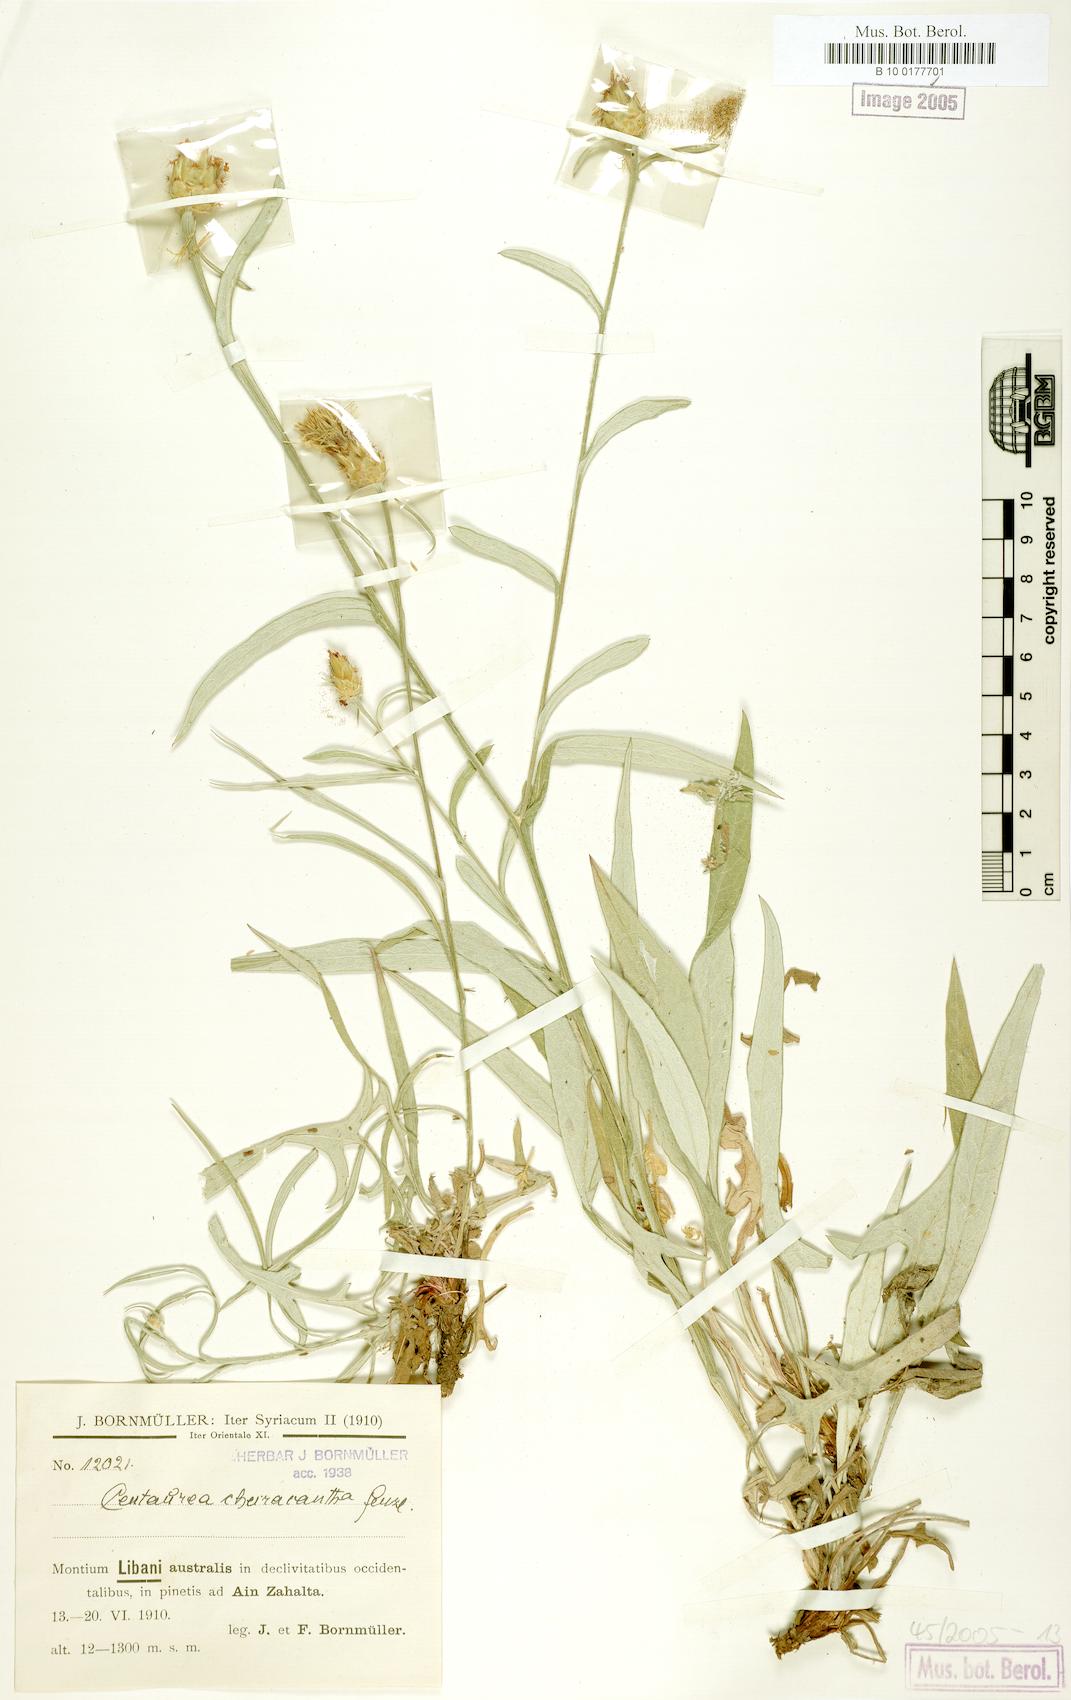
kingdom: Plantae
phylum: Tracheophyta
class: Magnoliopsida
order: Asterales
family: Asteraceae
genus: Centaurea
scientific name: Centaurea cheirolopha
